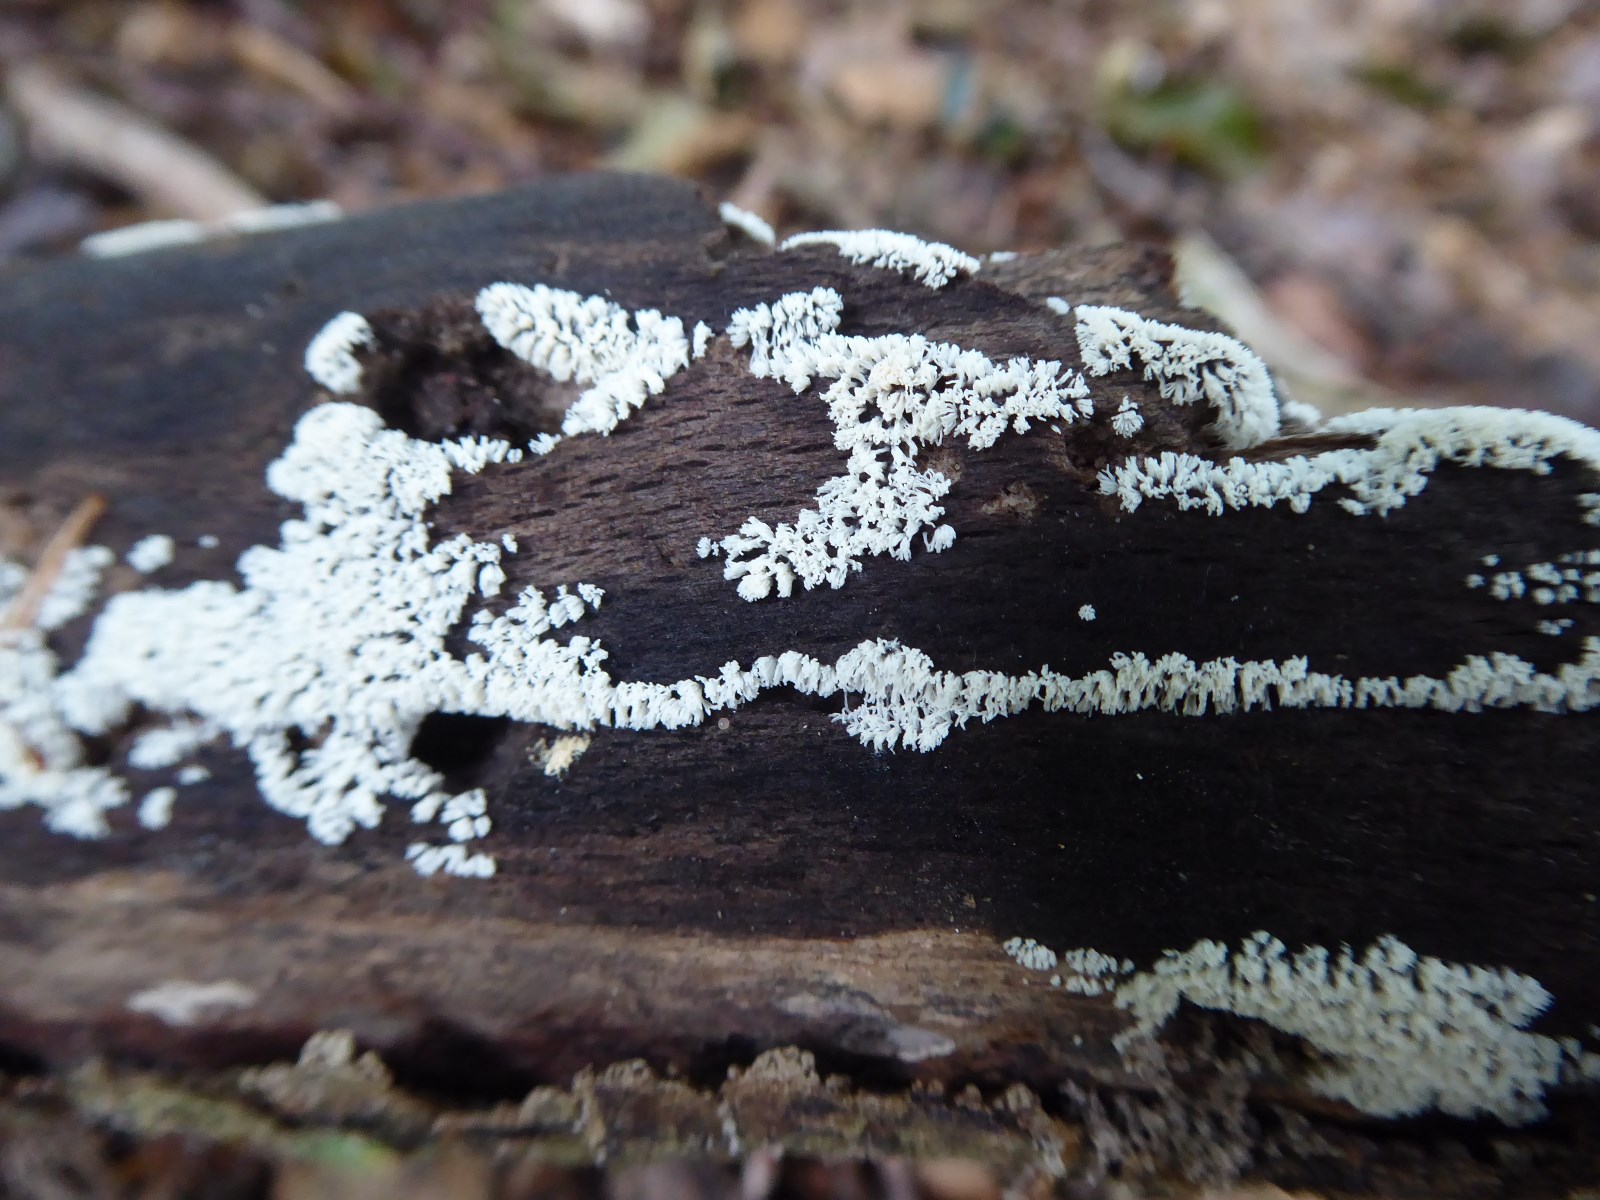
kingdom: Protozoa
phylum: Mycetozoa
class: Protosteliomycetes
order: Ceratiomyxales
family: Ceratiomyxaceae
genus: Ceratiomyxa
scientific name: Ceratiomyxa fruticulosa
